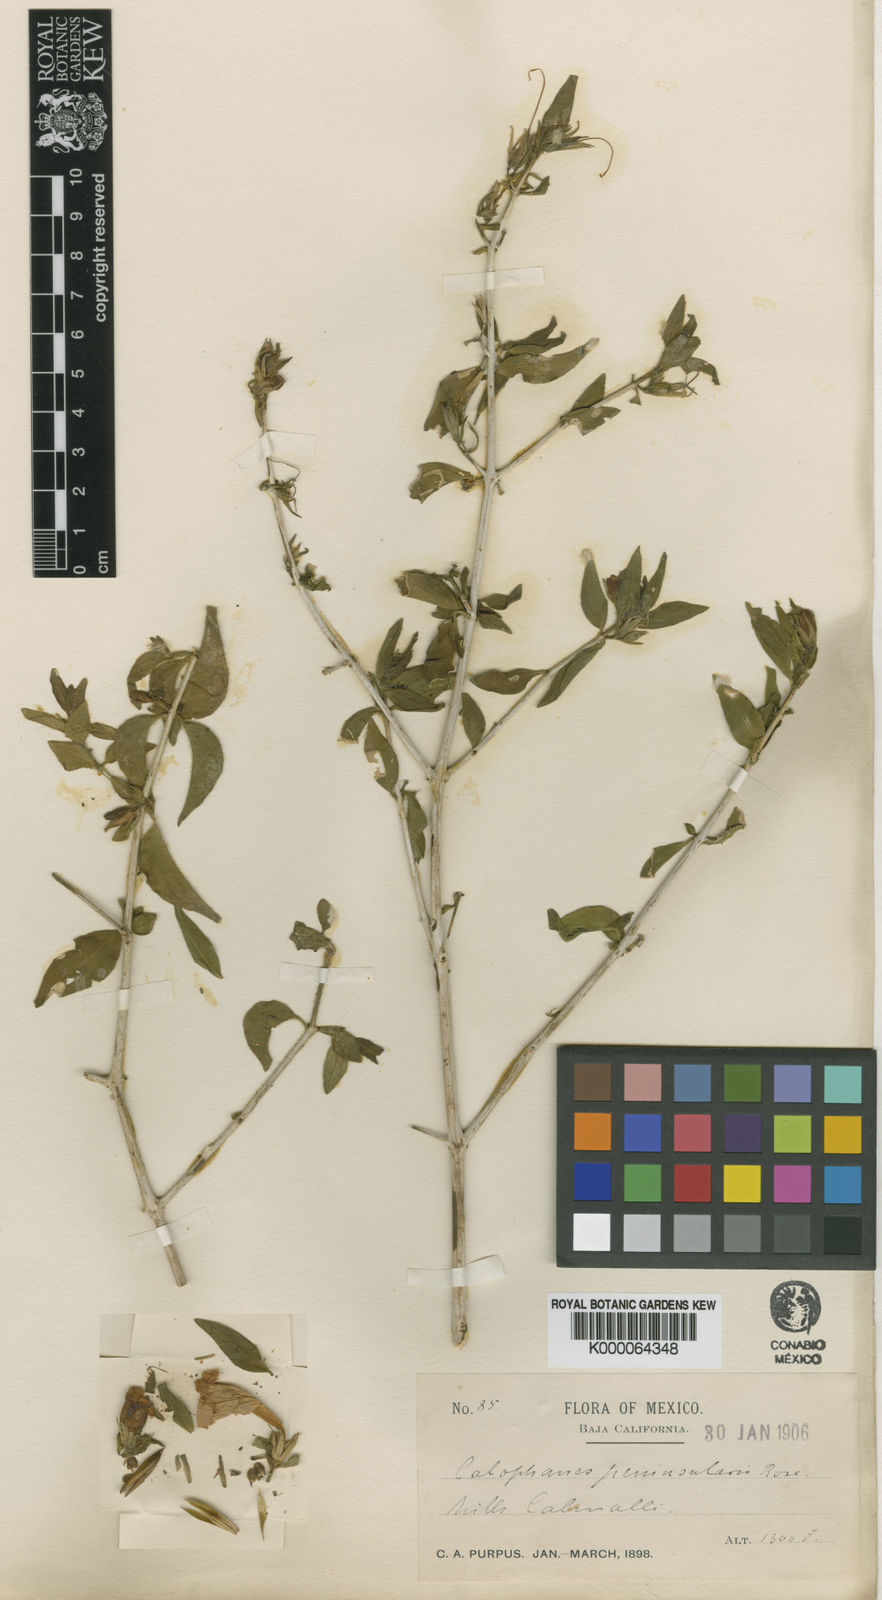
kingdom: Plantae
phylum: Tracheophyta
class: Magnoliopsida
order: Lamiales
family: Acanthaceae
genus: Ruellia
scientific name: Ruellia californica
